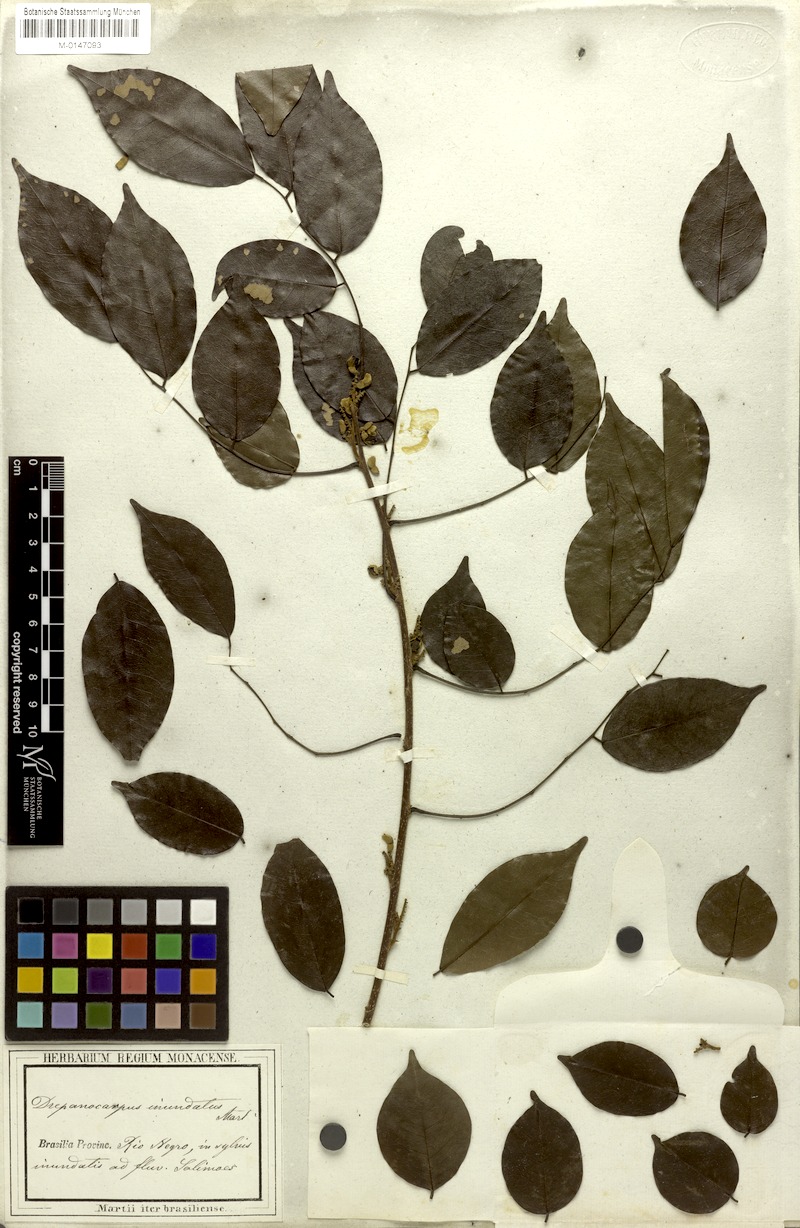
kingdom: Plantae
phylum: Tracheophyta
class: Magnoliopsida
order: Fabales
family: Fabaceae
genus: Machaerium
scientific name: Machaerium inundatum
